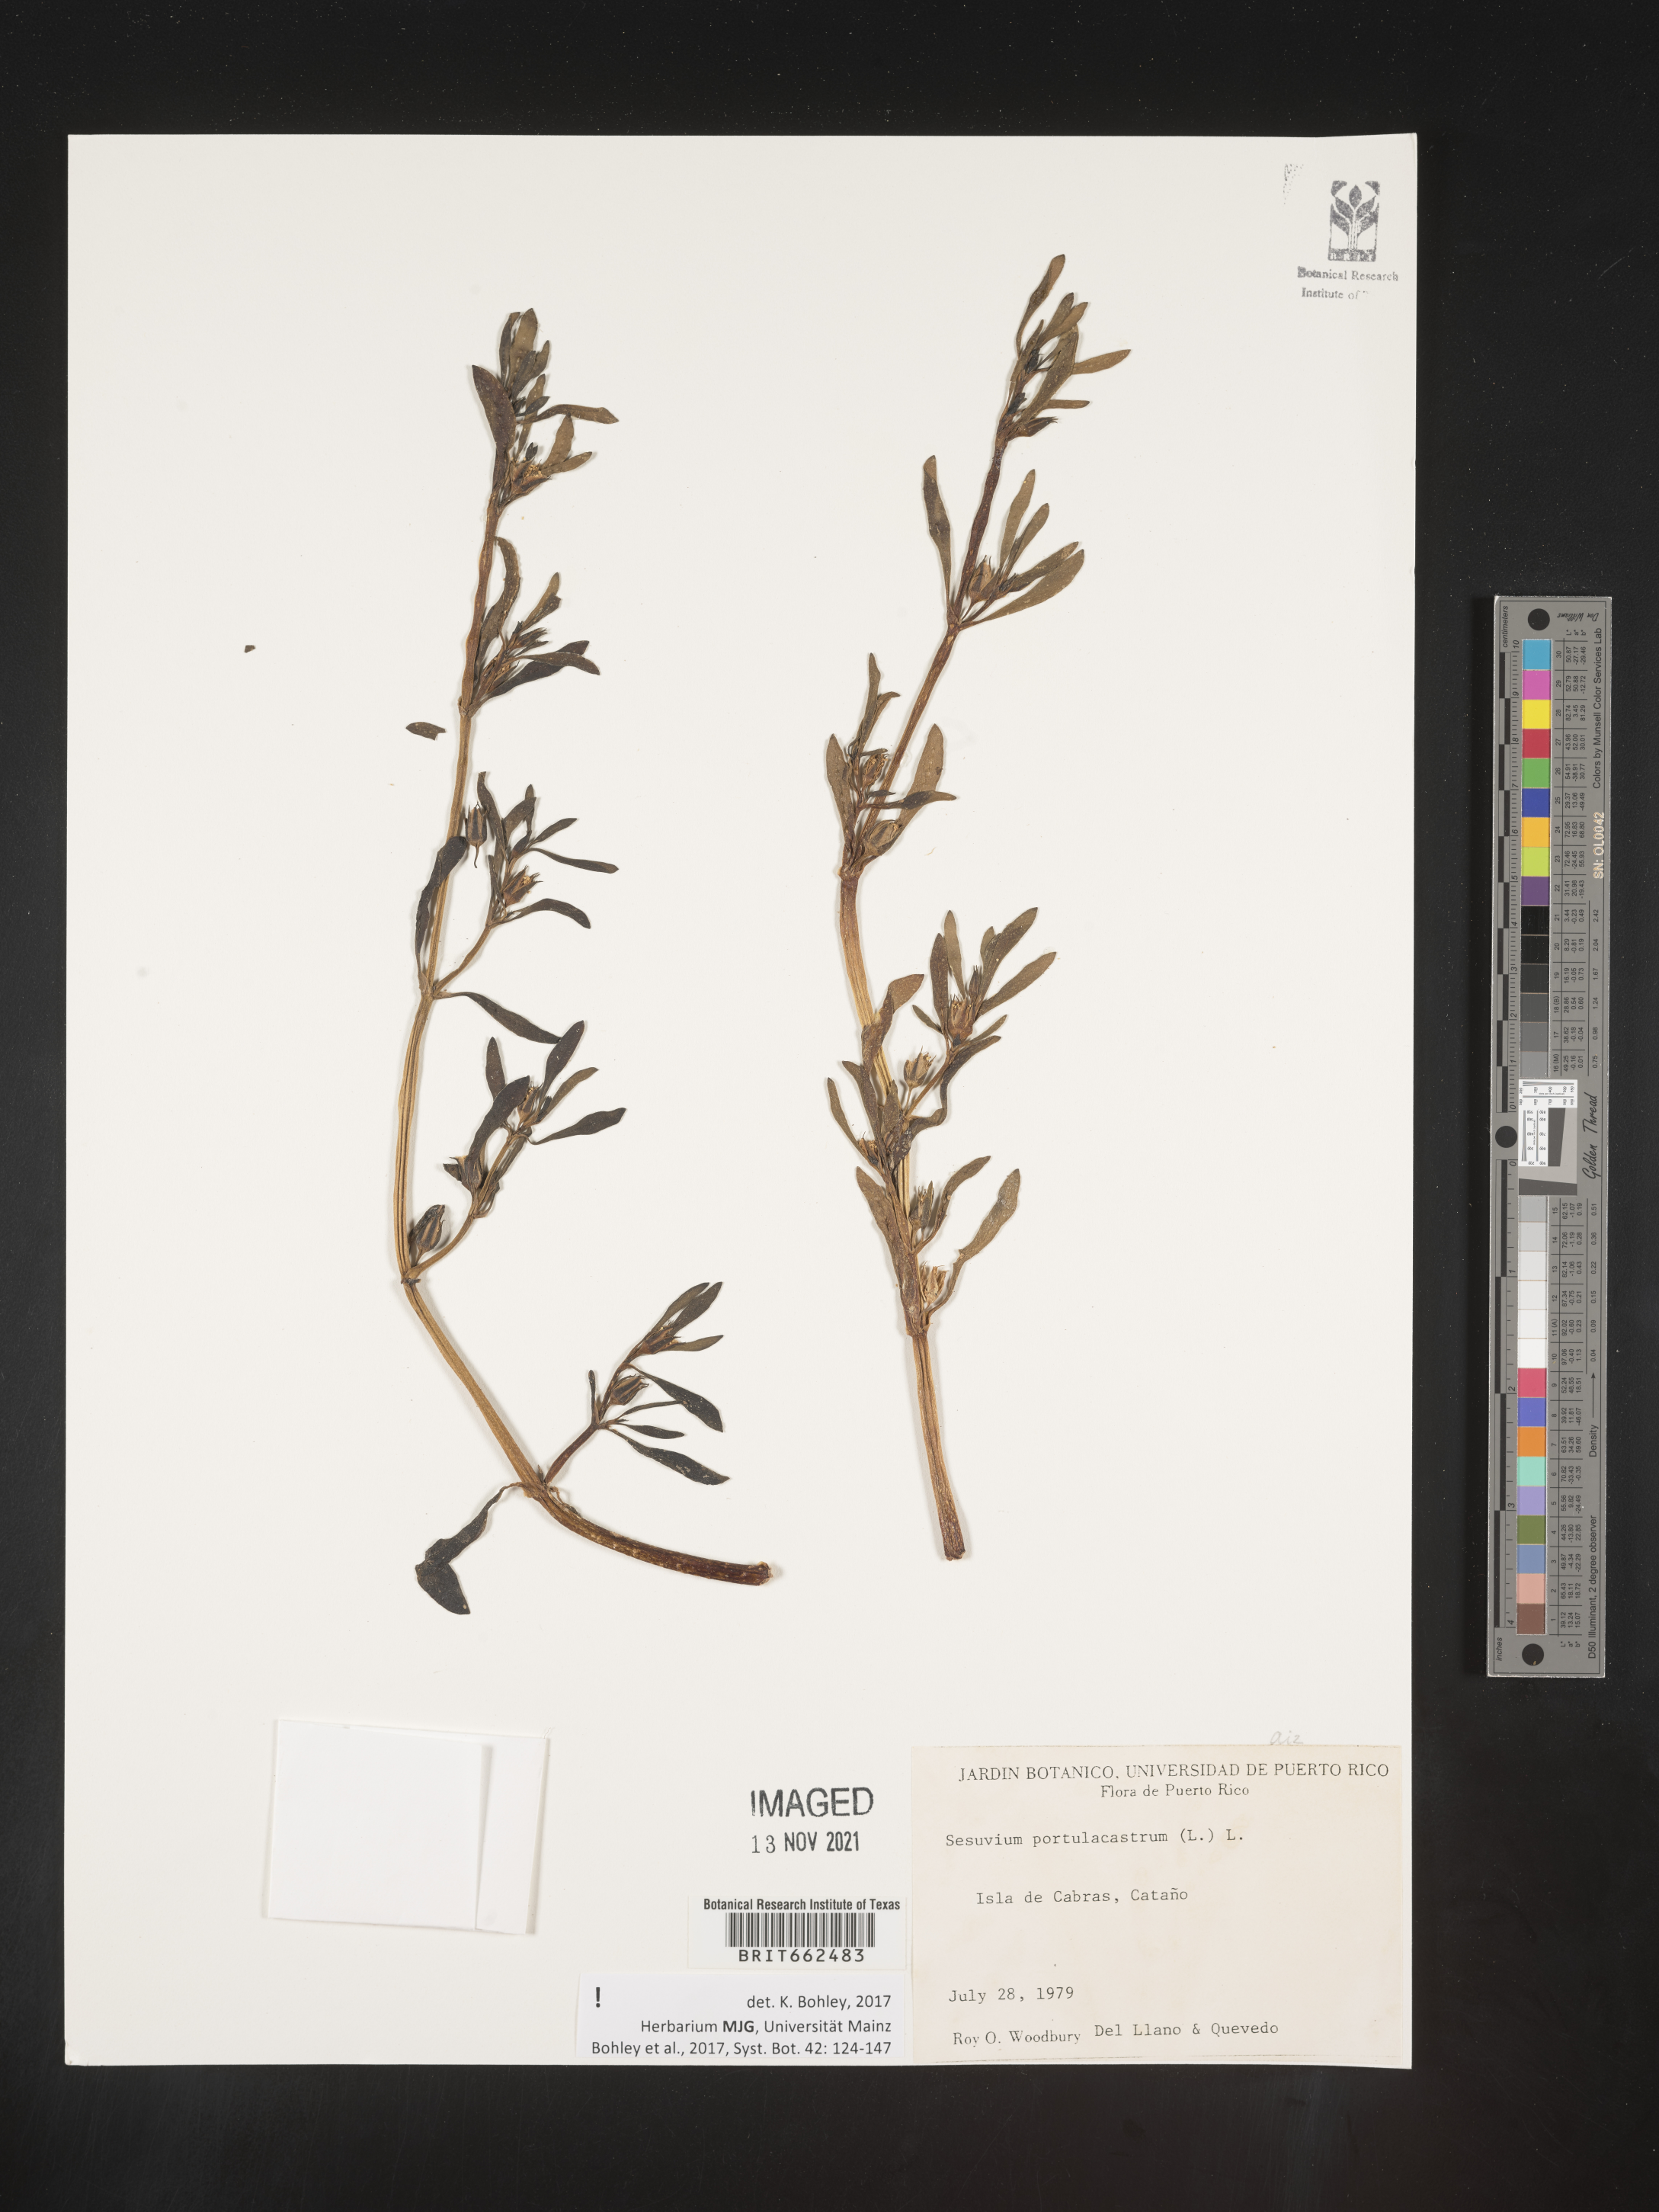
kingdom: Plantae
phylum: Tracheophyta
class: Magnoliopsida
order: Caryophyllales
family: Aizoaceae
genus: Sesuvium
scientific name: Sesuvium
